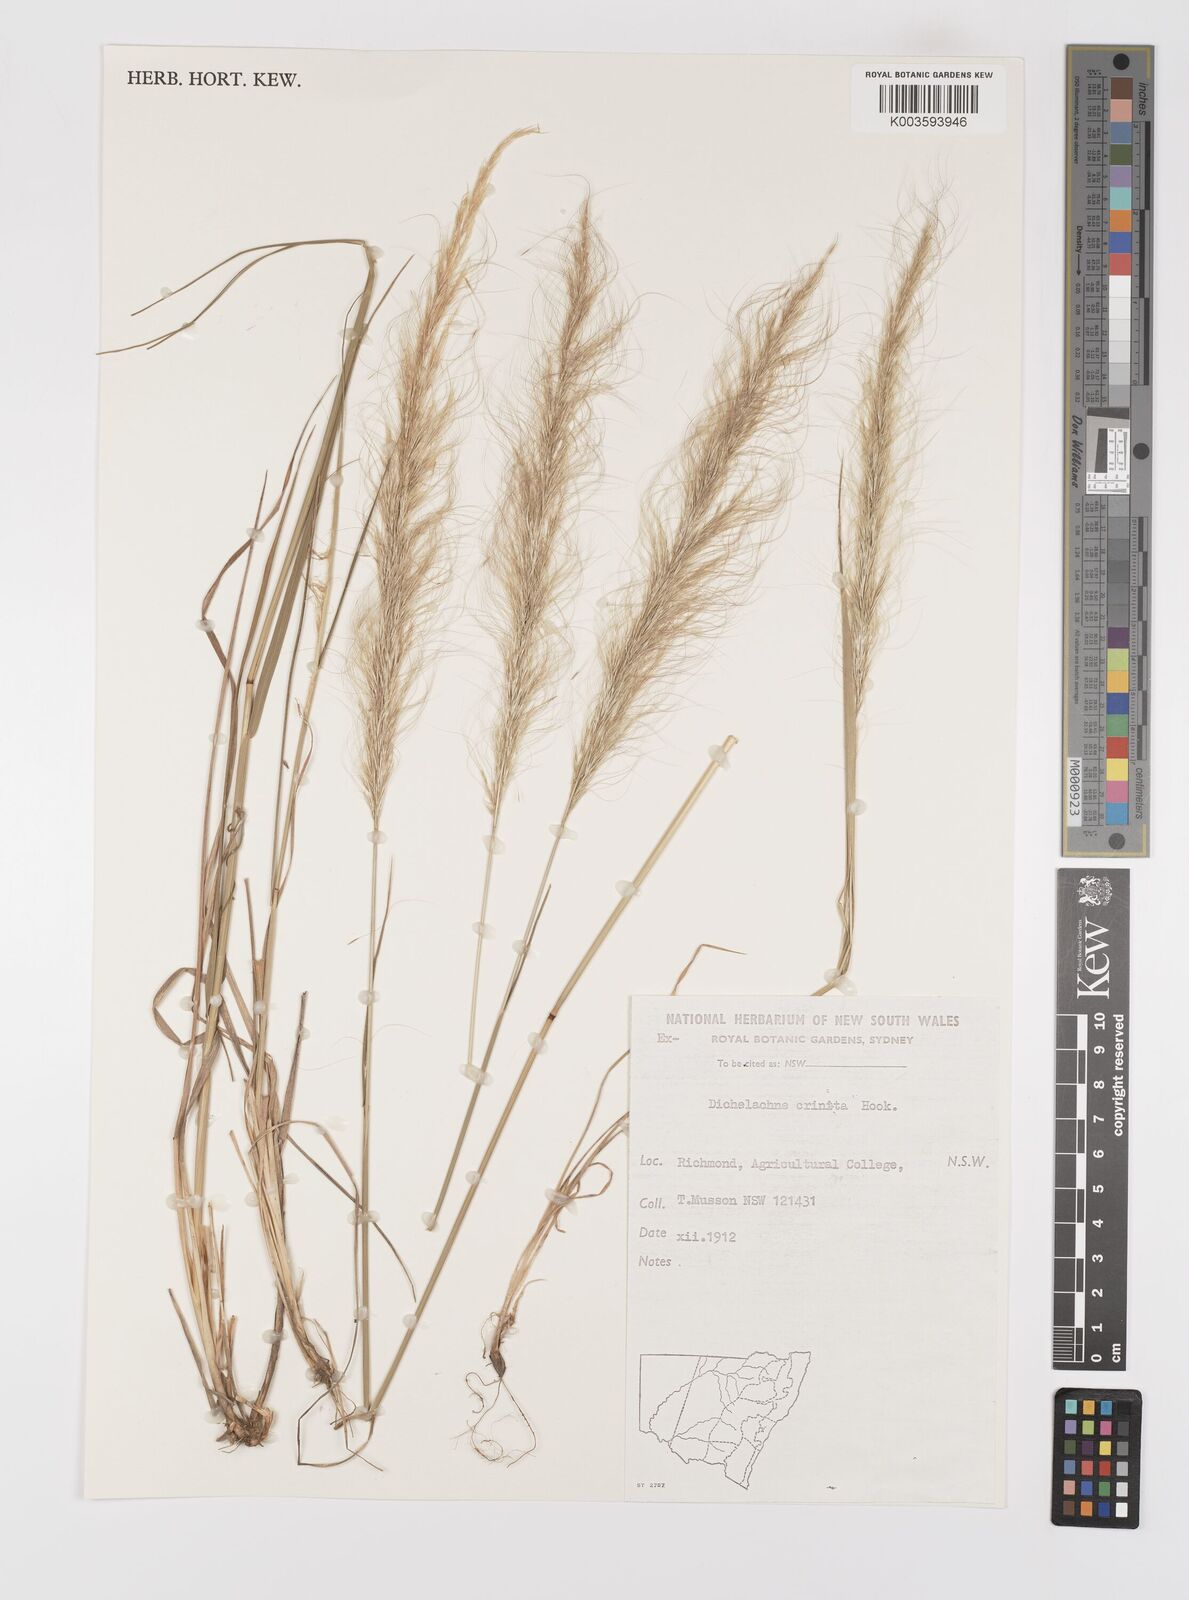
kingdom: Plantae
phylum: Tracheophyta
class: Liliopsida
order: Poales
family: Poaceae
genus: Dichelachne
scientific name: Dichelachne
